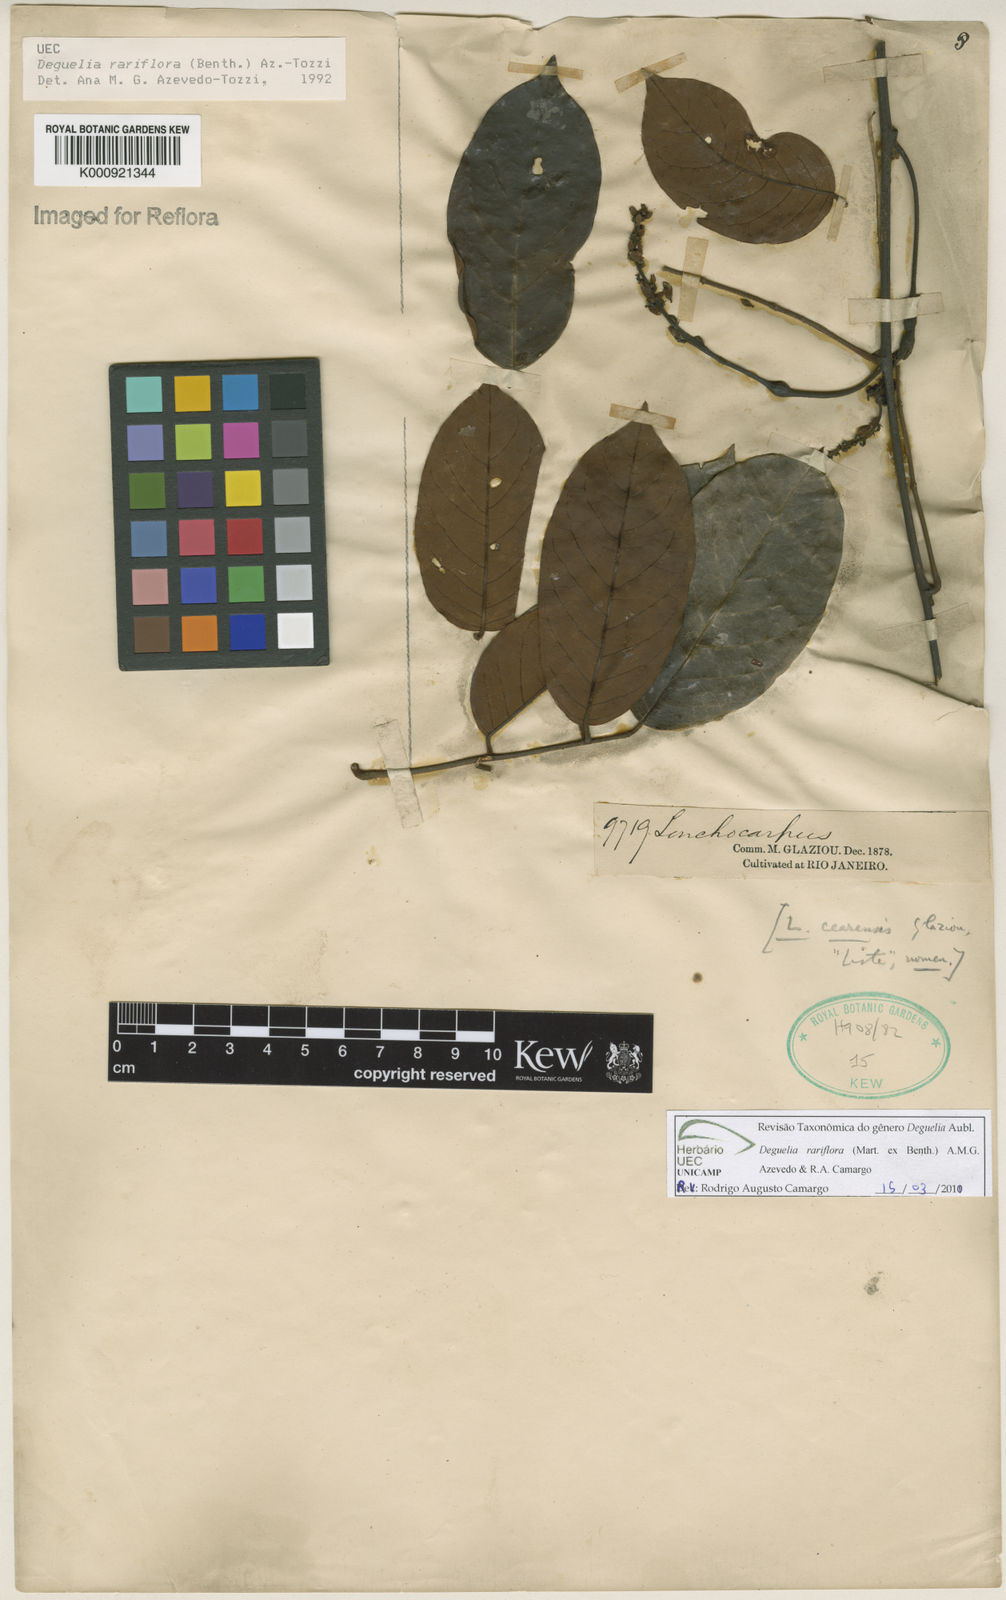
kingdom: Plantae
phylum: Tracheophyta
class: Magnoliopsida
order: Fabales
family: Fabaceae
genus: Deguelia
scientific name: Deguelia
